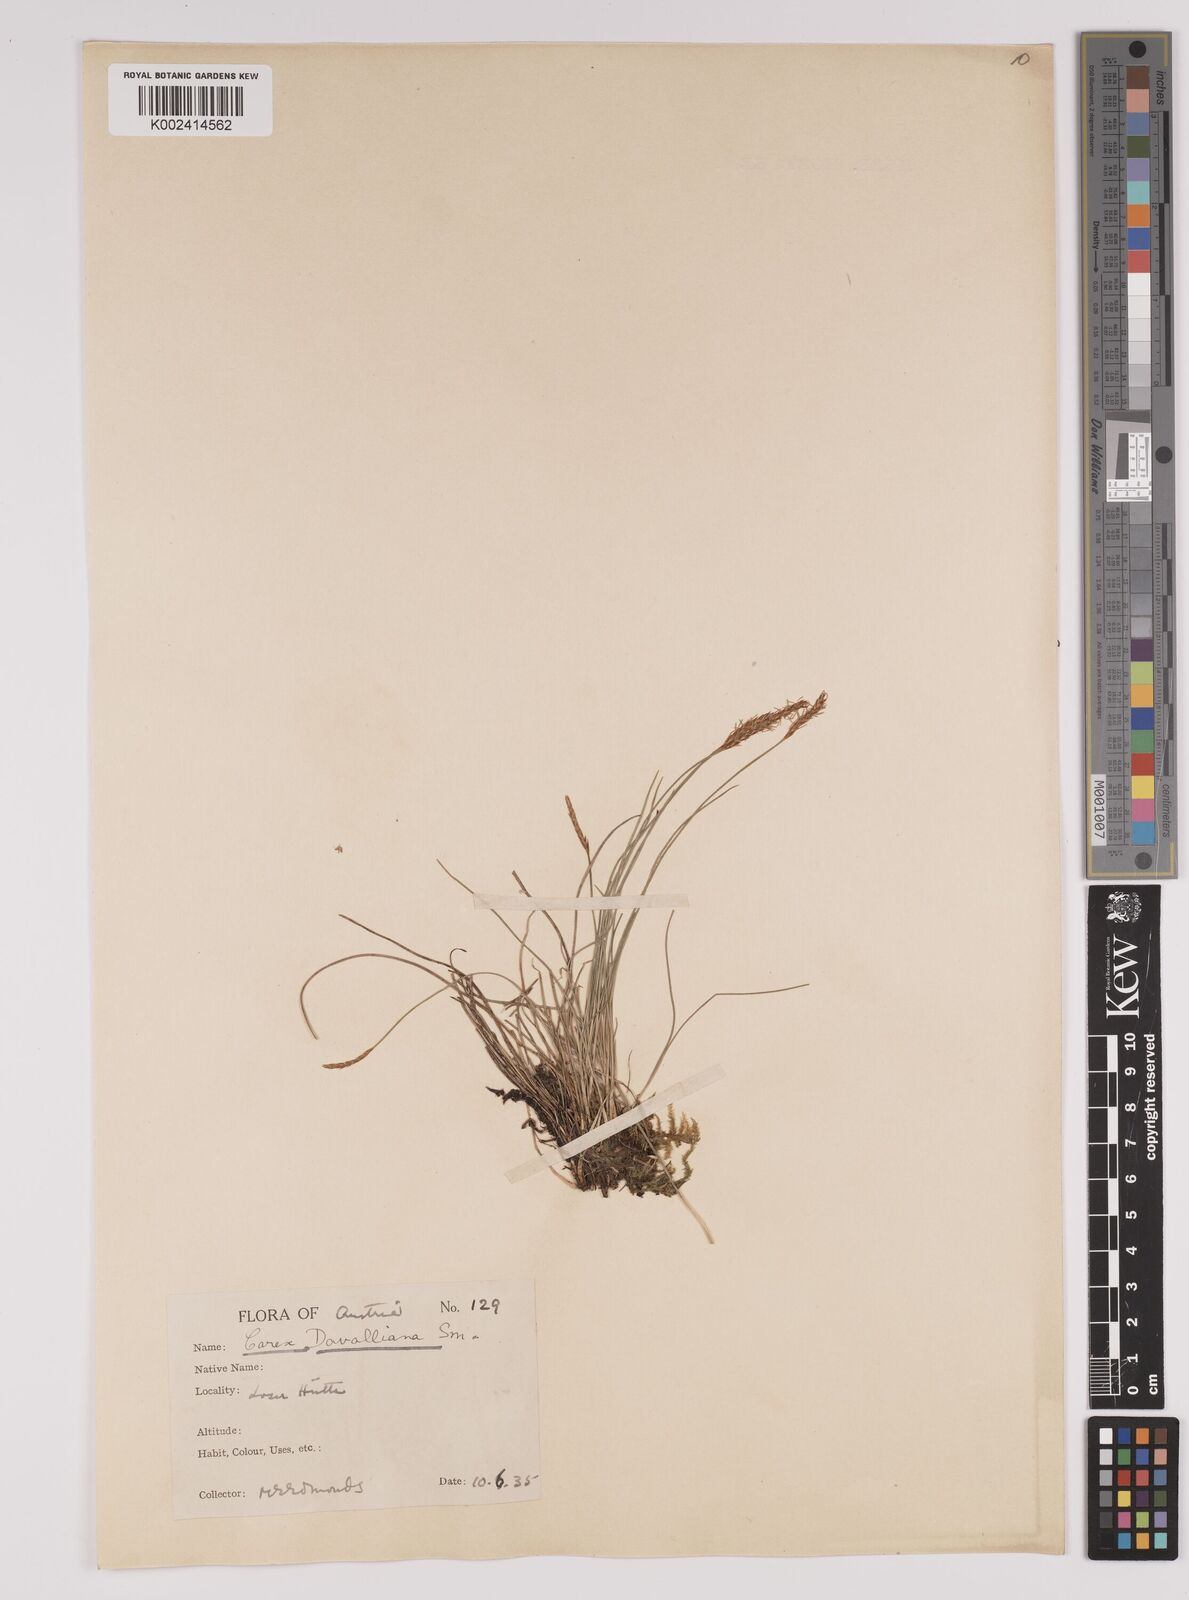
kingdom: Plantae
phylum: Tracheophyta
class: Liliopsida
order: Poales
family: Cyperaceae
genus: Carex
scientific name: Carex davalliana
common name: Davall's sedge
